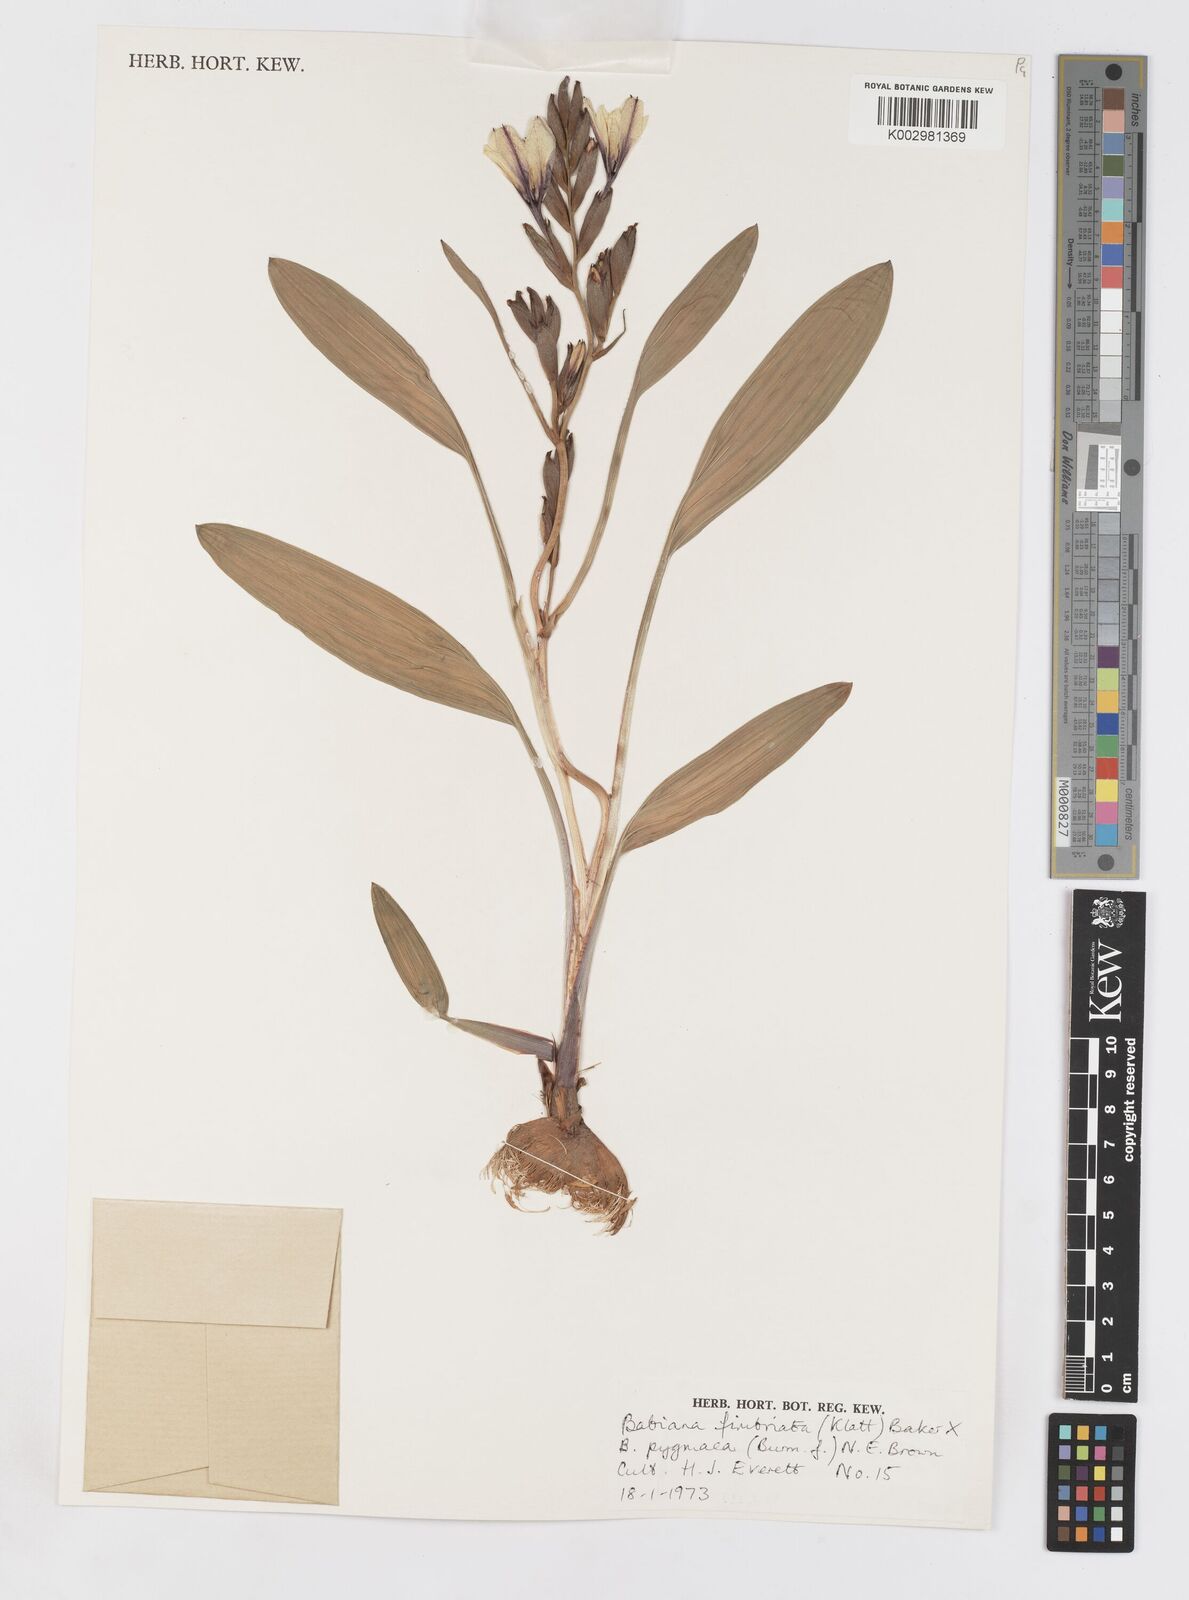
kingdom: Plantae
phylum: Tracheophyta
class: Liliopsida
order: Asparagales
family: Iridaceae
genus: Babiana
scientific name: Babiana fimbriata
